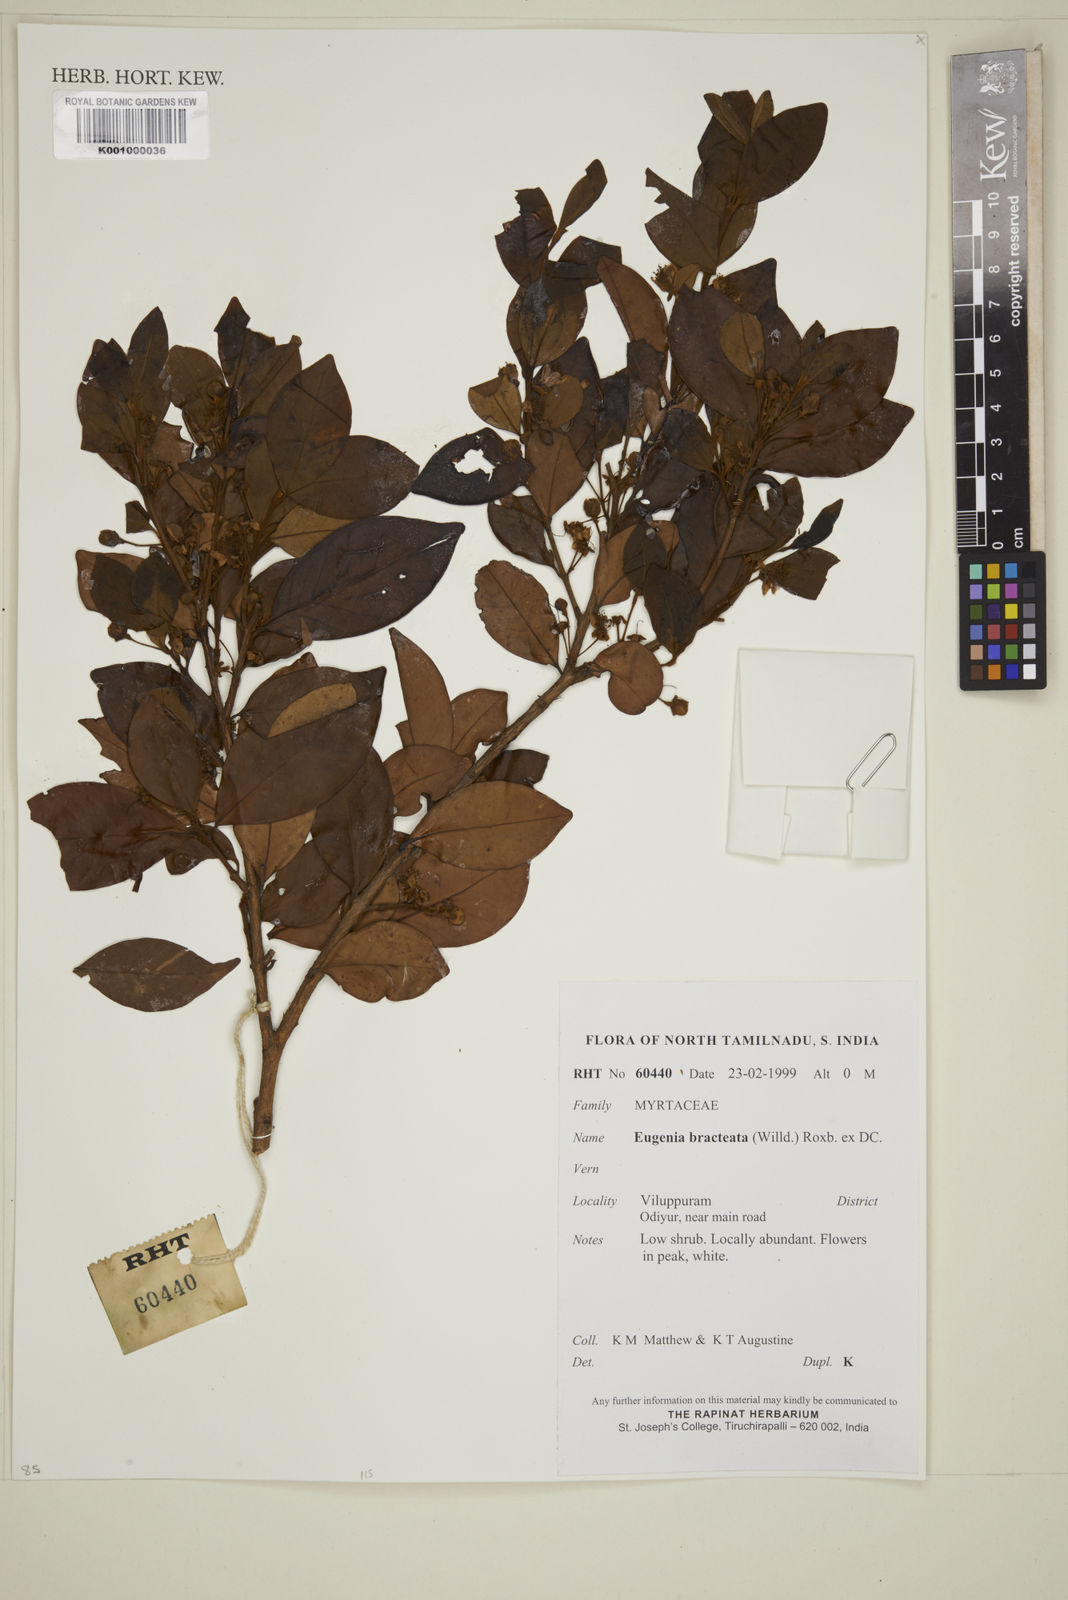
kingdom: Plantae
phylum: Tracheophyta
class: Magnoliopsida
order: Myrtales
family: Myrtaceae
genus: Myrcia
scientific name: Myrcia bracteata
